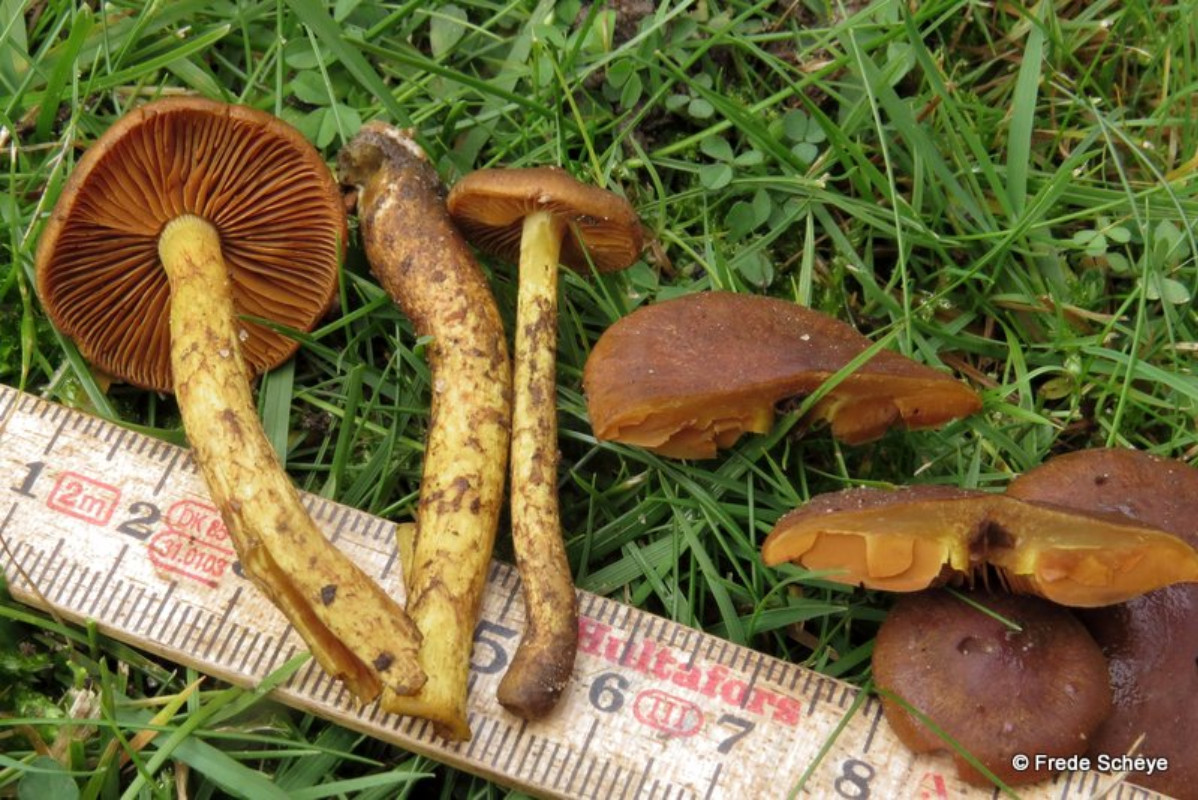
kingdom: Fungi
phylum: Basidiomycota
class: Agaricomycetes
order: Agaricales
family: Cortinariaceae
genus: Cortinarius
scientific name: Cortinarius
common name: gulbladet slørhat
